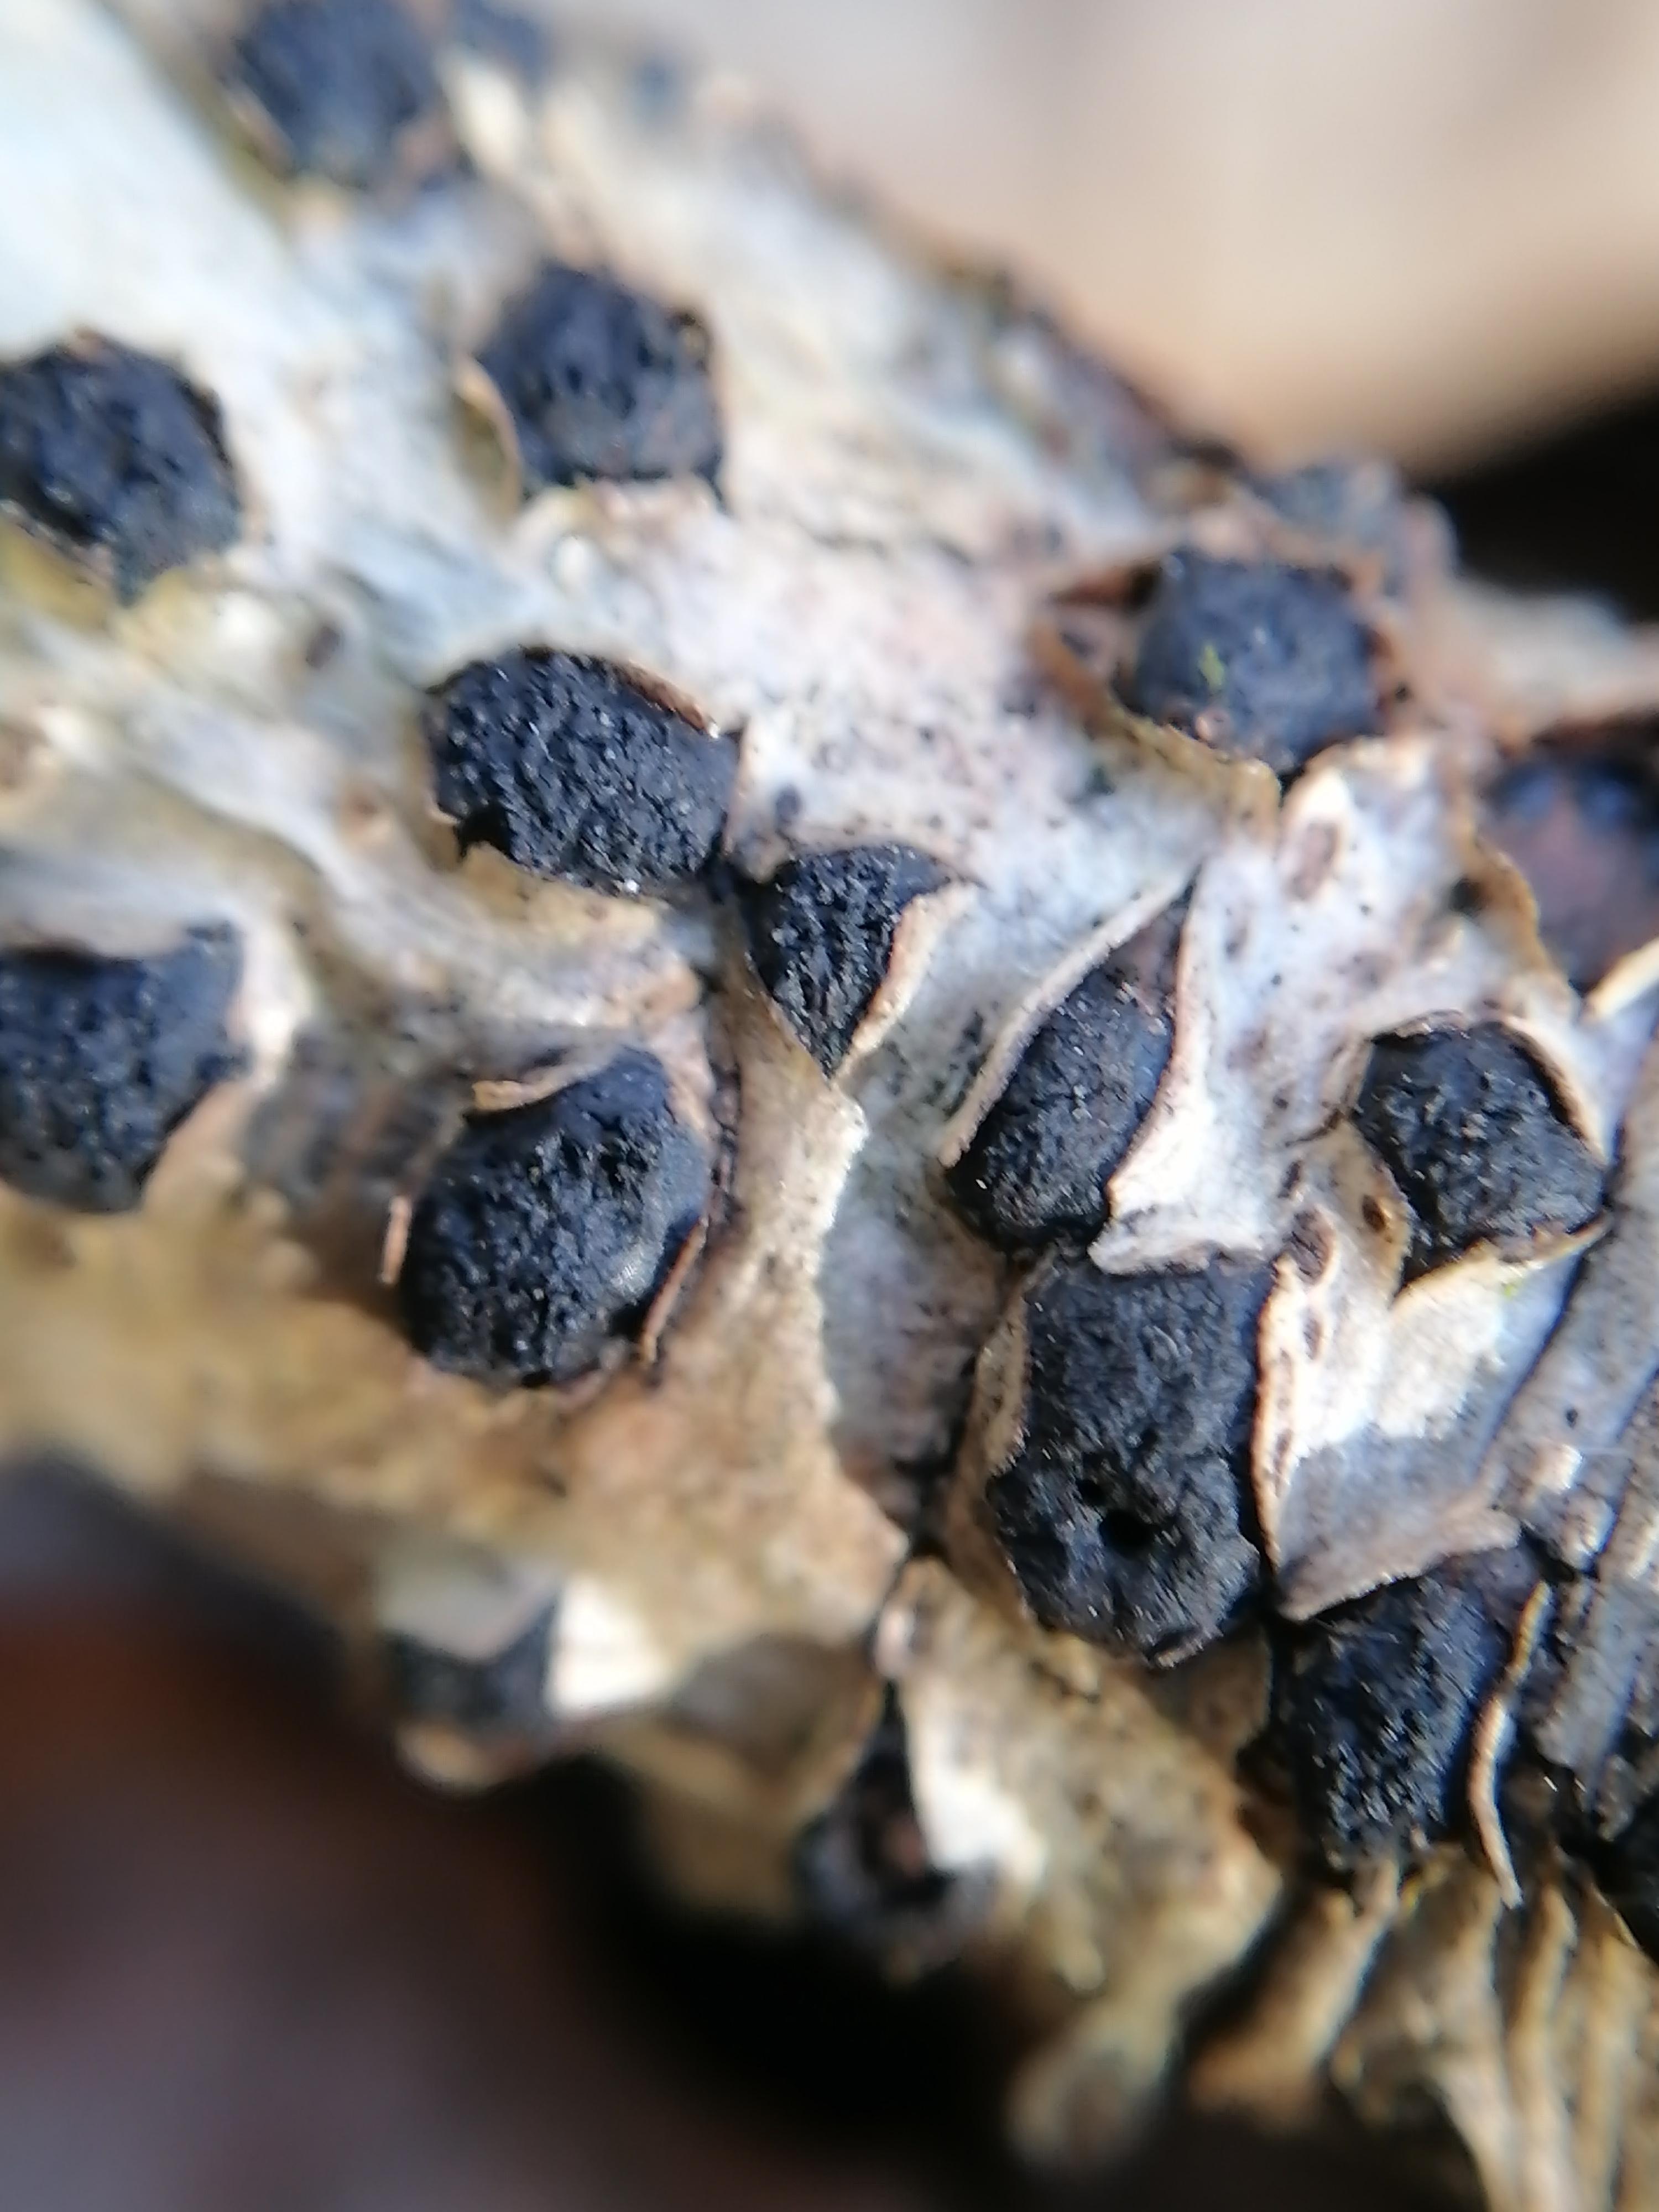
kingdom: Fungi
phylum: Ascomycota
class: Sordariomycetes
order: Xylariales
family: Diatrypaceae
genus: Diatrypella
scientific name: Diatrypella quercina
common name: ege-kulskorpe
